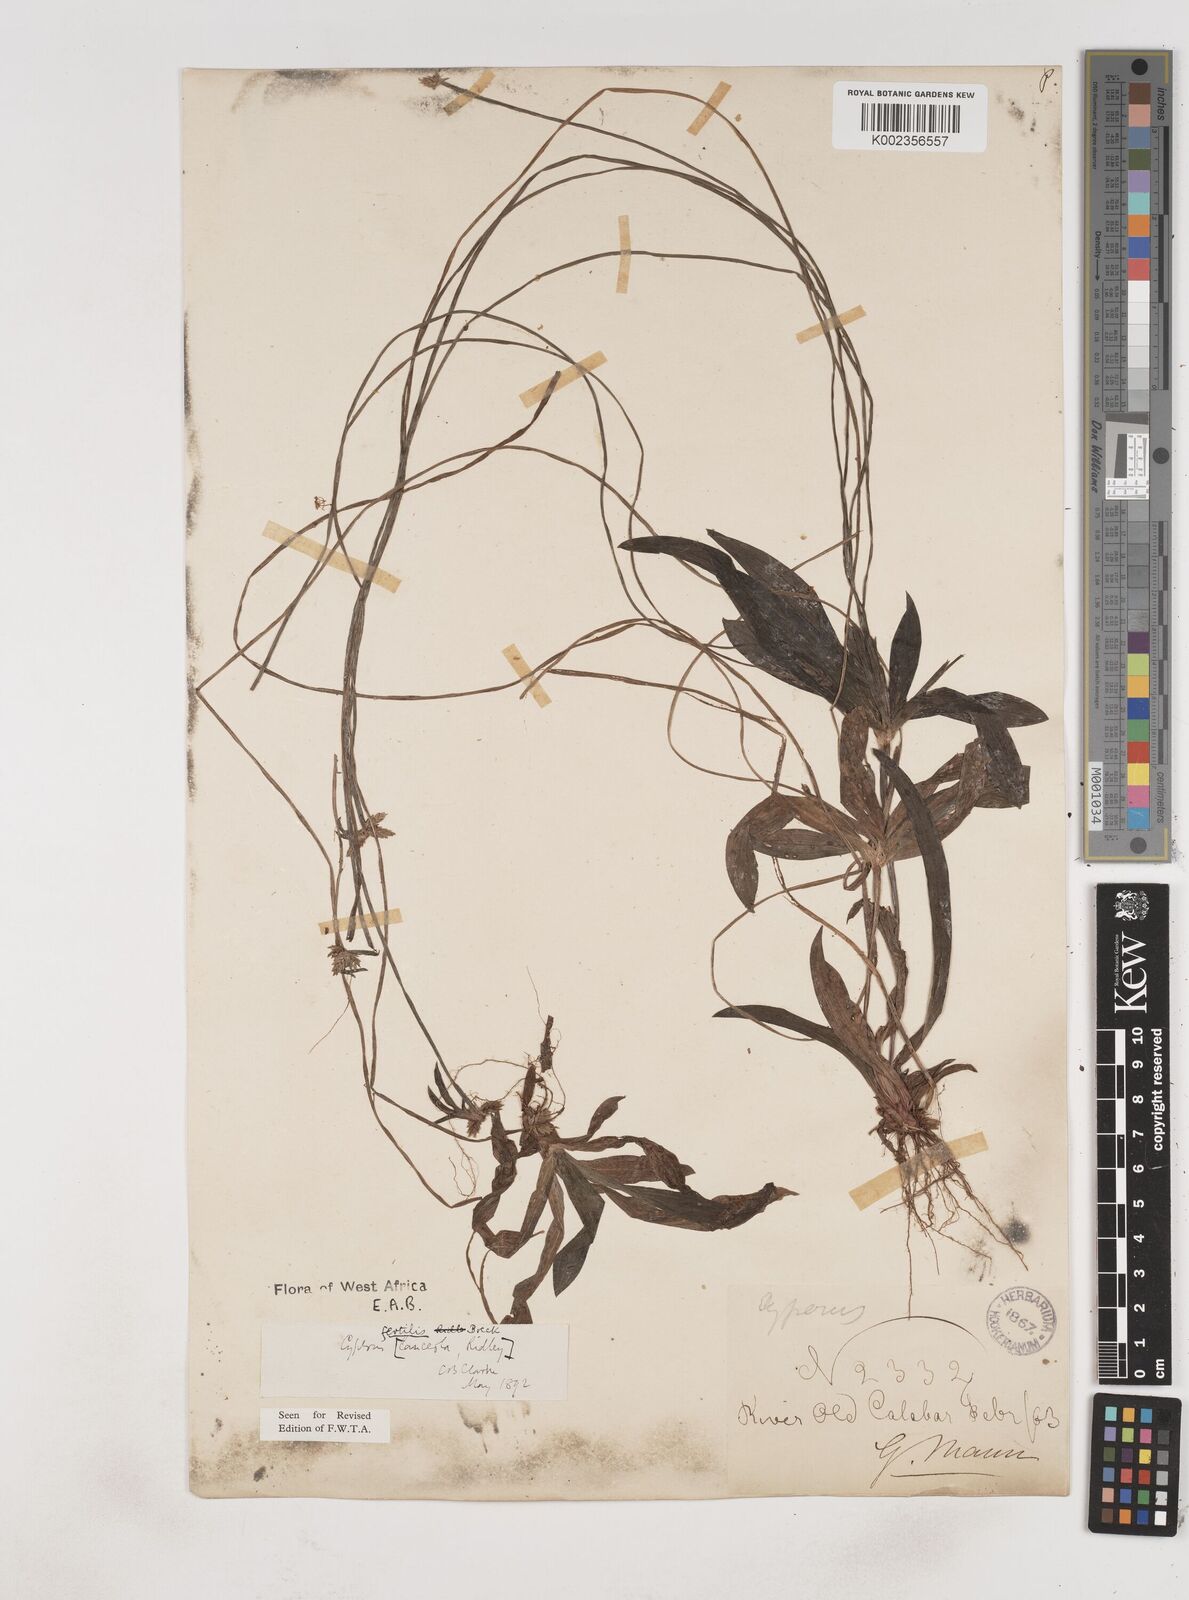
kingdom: Plantae
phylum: Tracheophyta
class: Liliopsida
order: Poales
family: Cyperaceae
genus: Cyperus
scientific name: Cyperus fertilis
